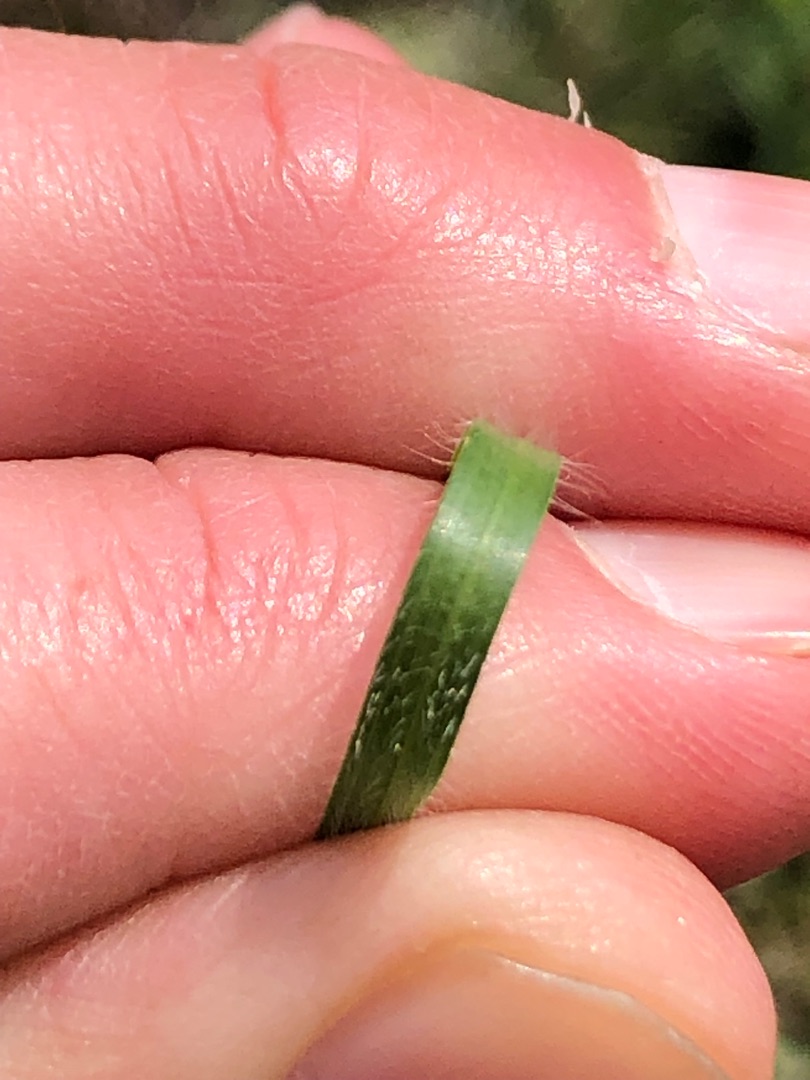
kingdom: Plantae
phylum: Tracheophyta
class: Liliopsida
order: Poales
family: Poaceae
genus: Koeleria
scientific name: Koeleria pyramidata
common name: Dansk kambunke
